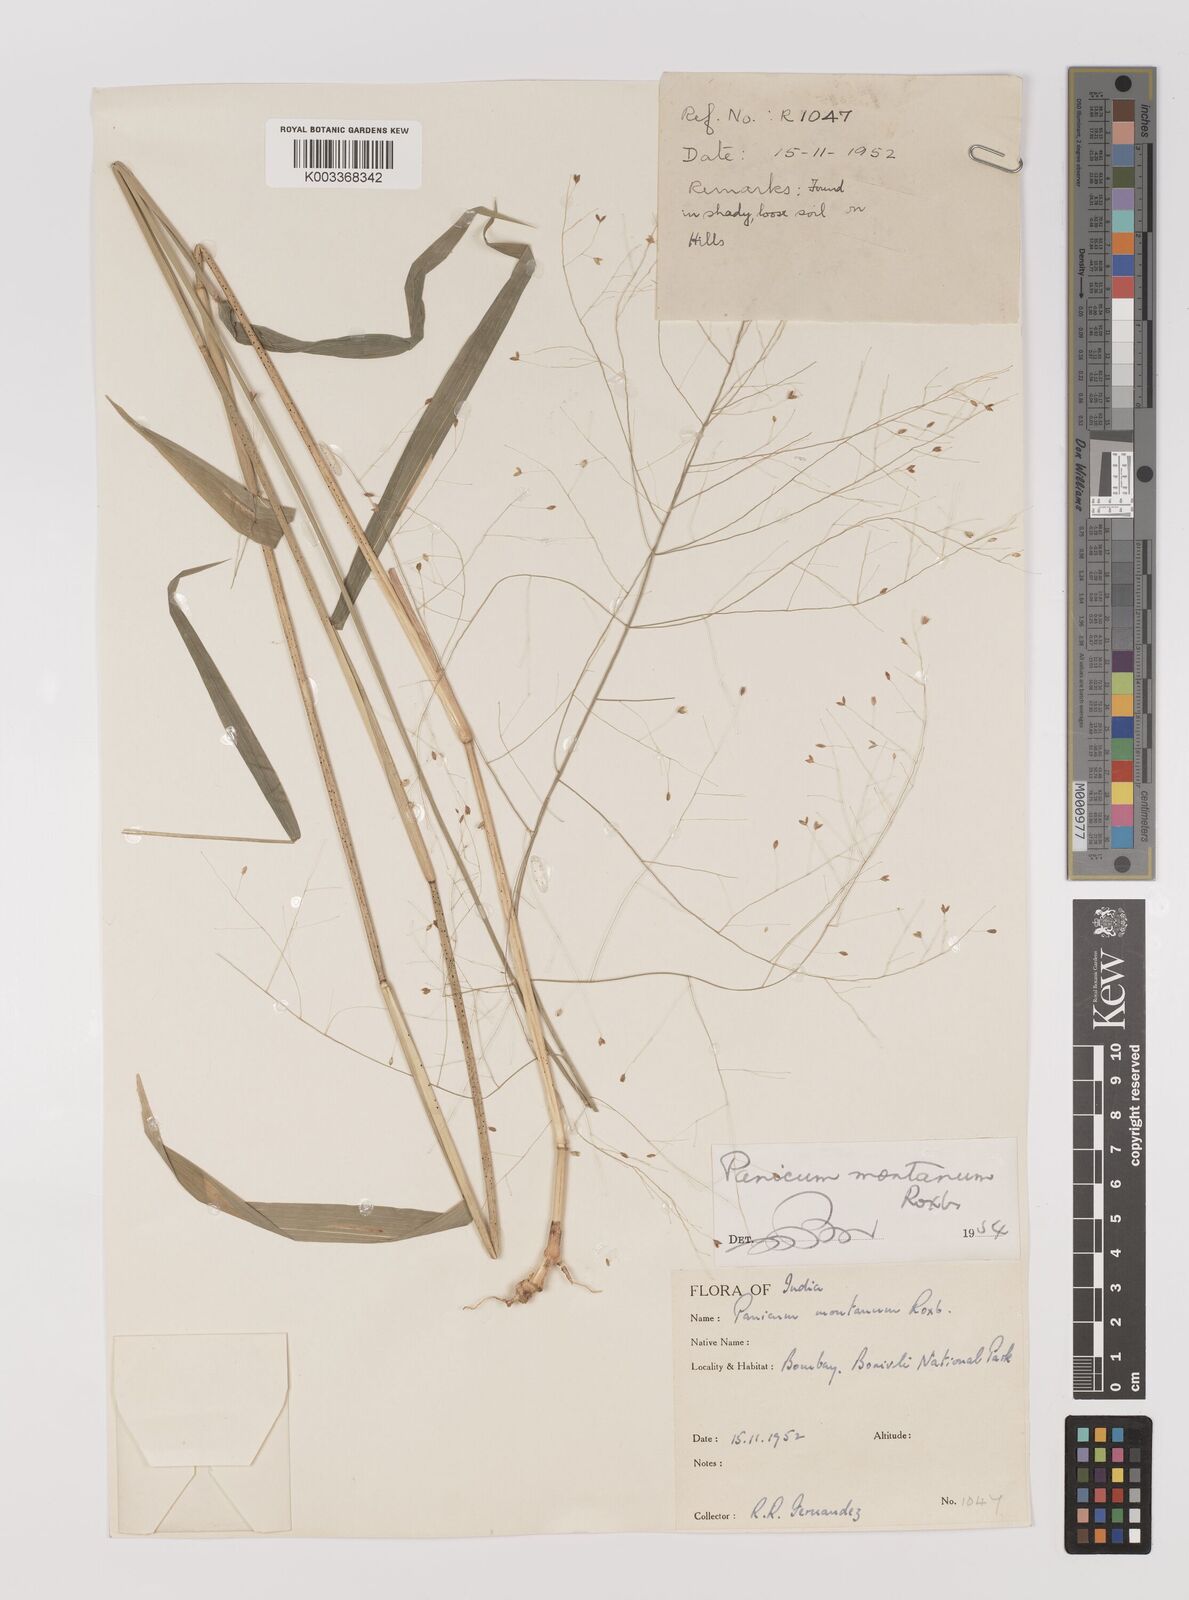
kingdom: Plantae
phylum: Tracheophyta
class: Liliopsida
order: Poales
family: Poaceae
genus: Panicum
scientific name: Panicum notatum
